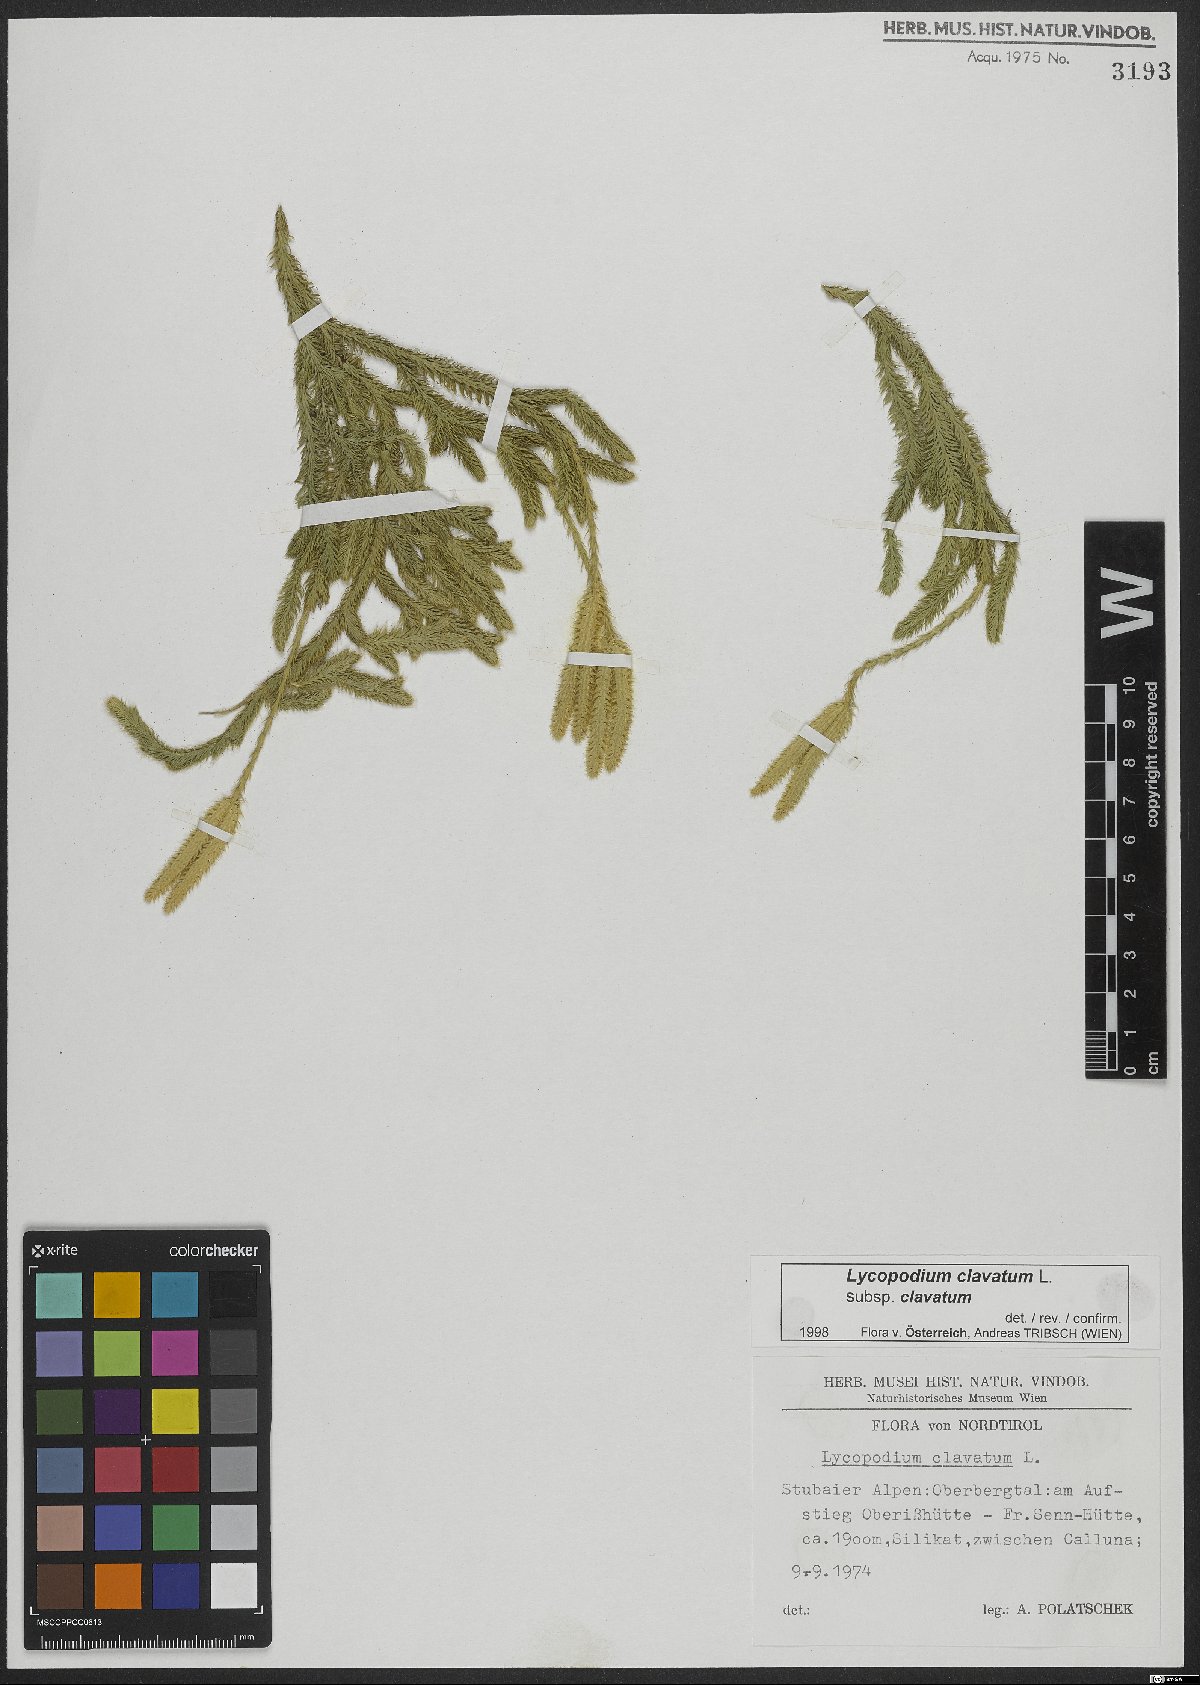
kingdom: Plantae
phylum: Tracheophyta
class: Lycopodiopsida
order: Lycopodiales
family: Lycopodiaceae
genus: Lycopodium
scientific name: Lycopodium clavatum
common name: Stag's-horn clubmoss
